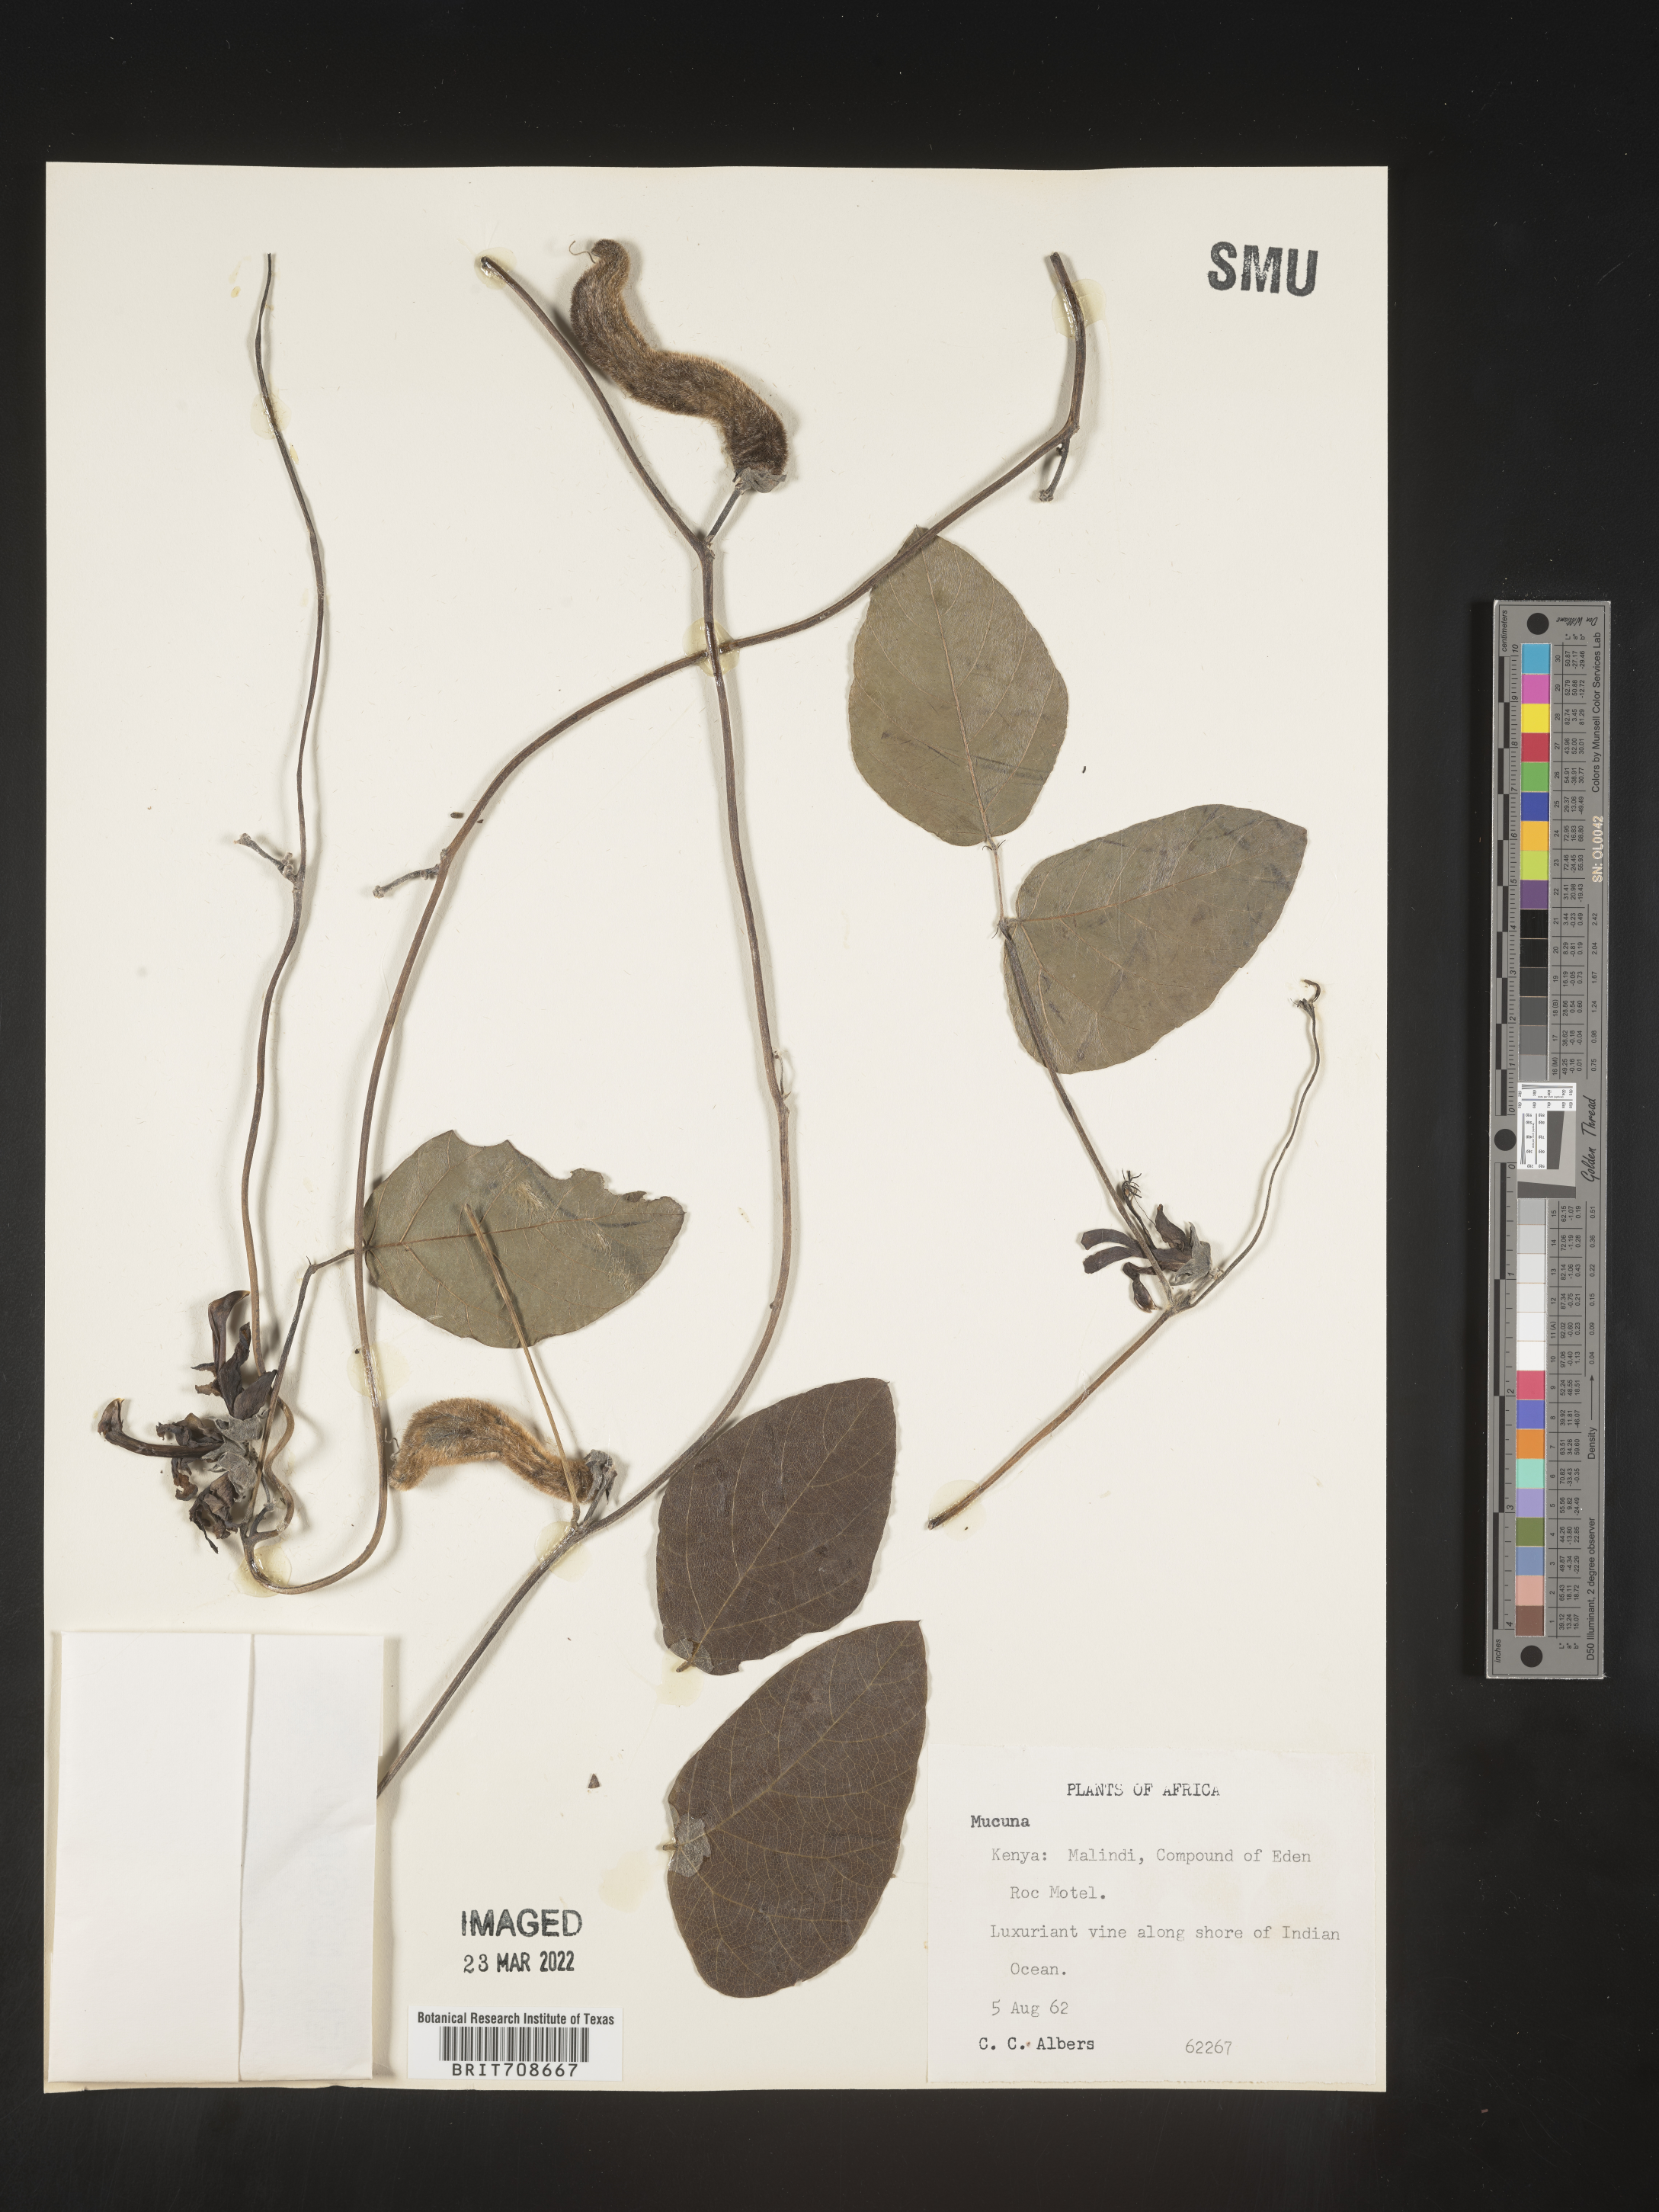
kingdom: Plantae
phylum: Tracheophyta
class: Magnoliopsida
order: Fabales
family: Fabaceae
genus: Mucuna
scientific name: Mucuna
